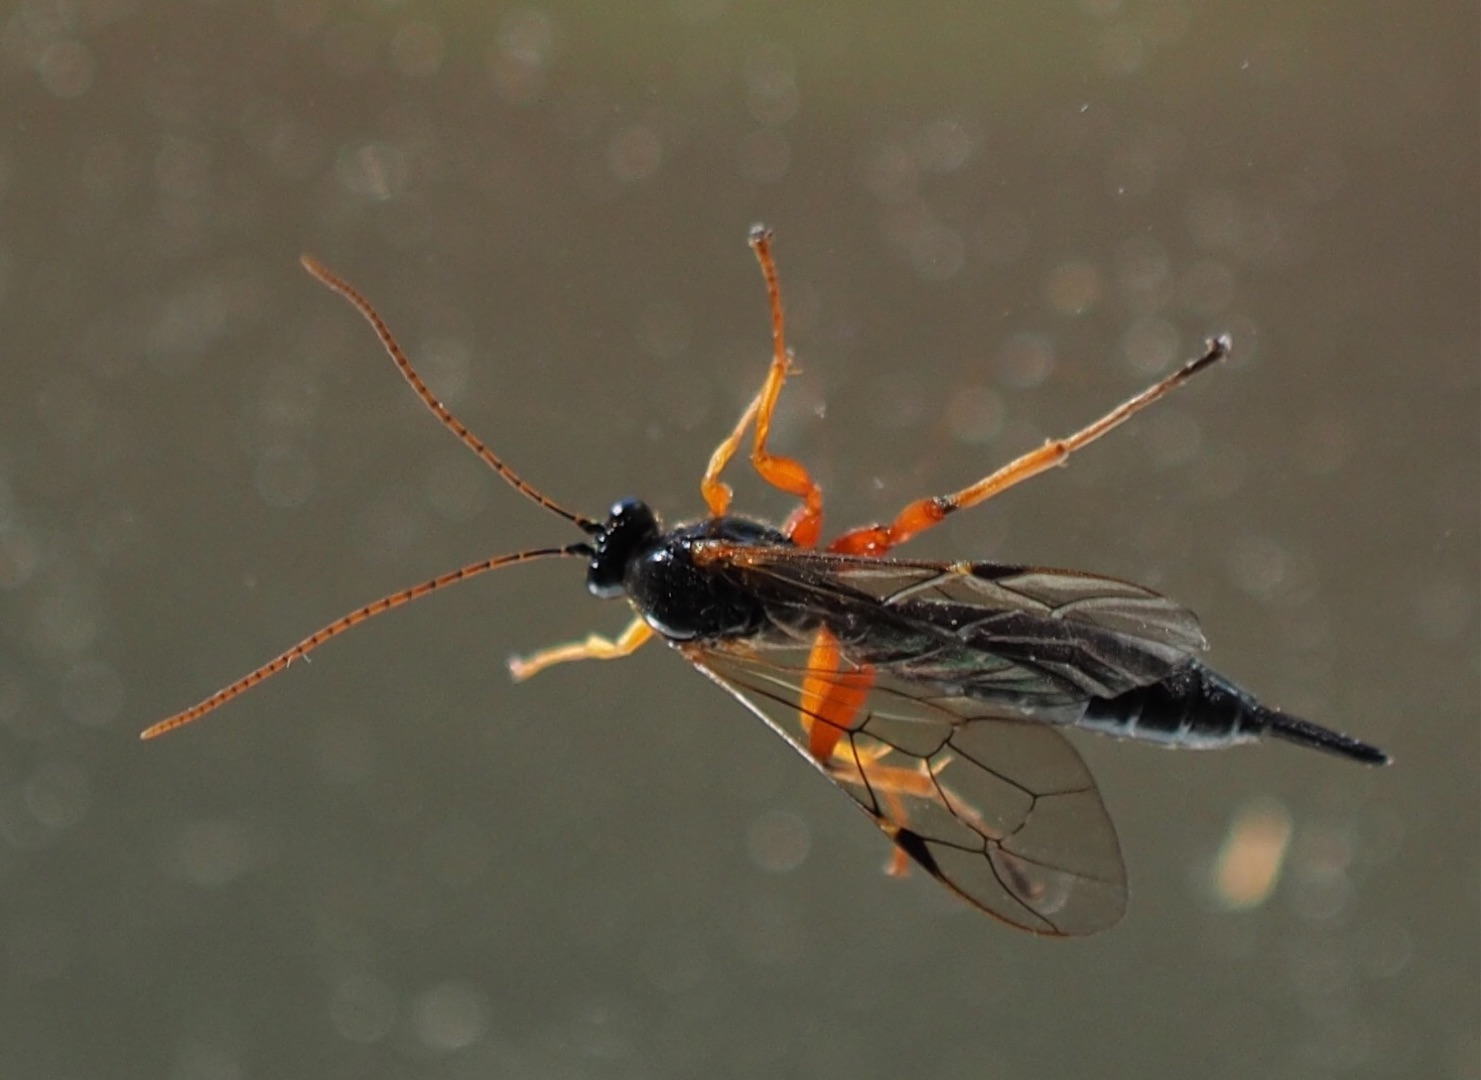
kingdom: Animalia
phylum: Arthropoda
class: Insecta
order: Hymenoptera
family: Ichneumonidae
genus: Apechthis
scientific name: Apechthis
